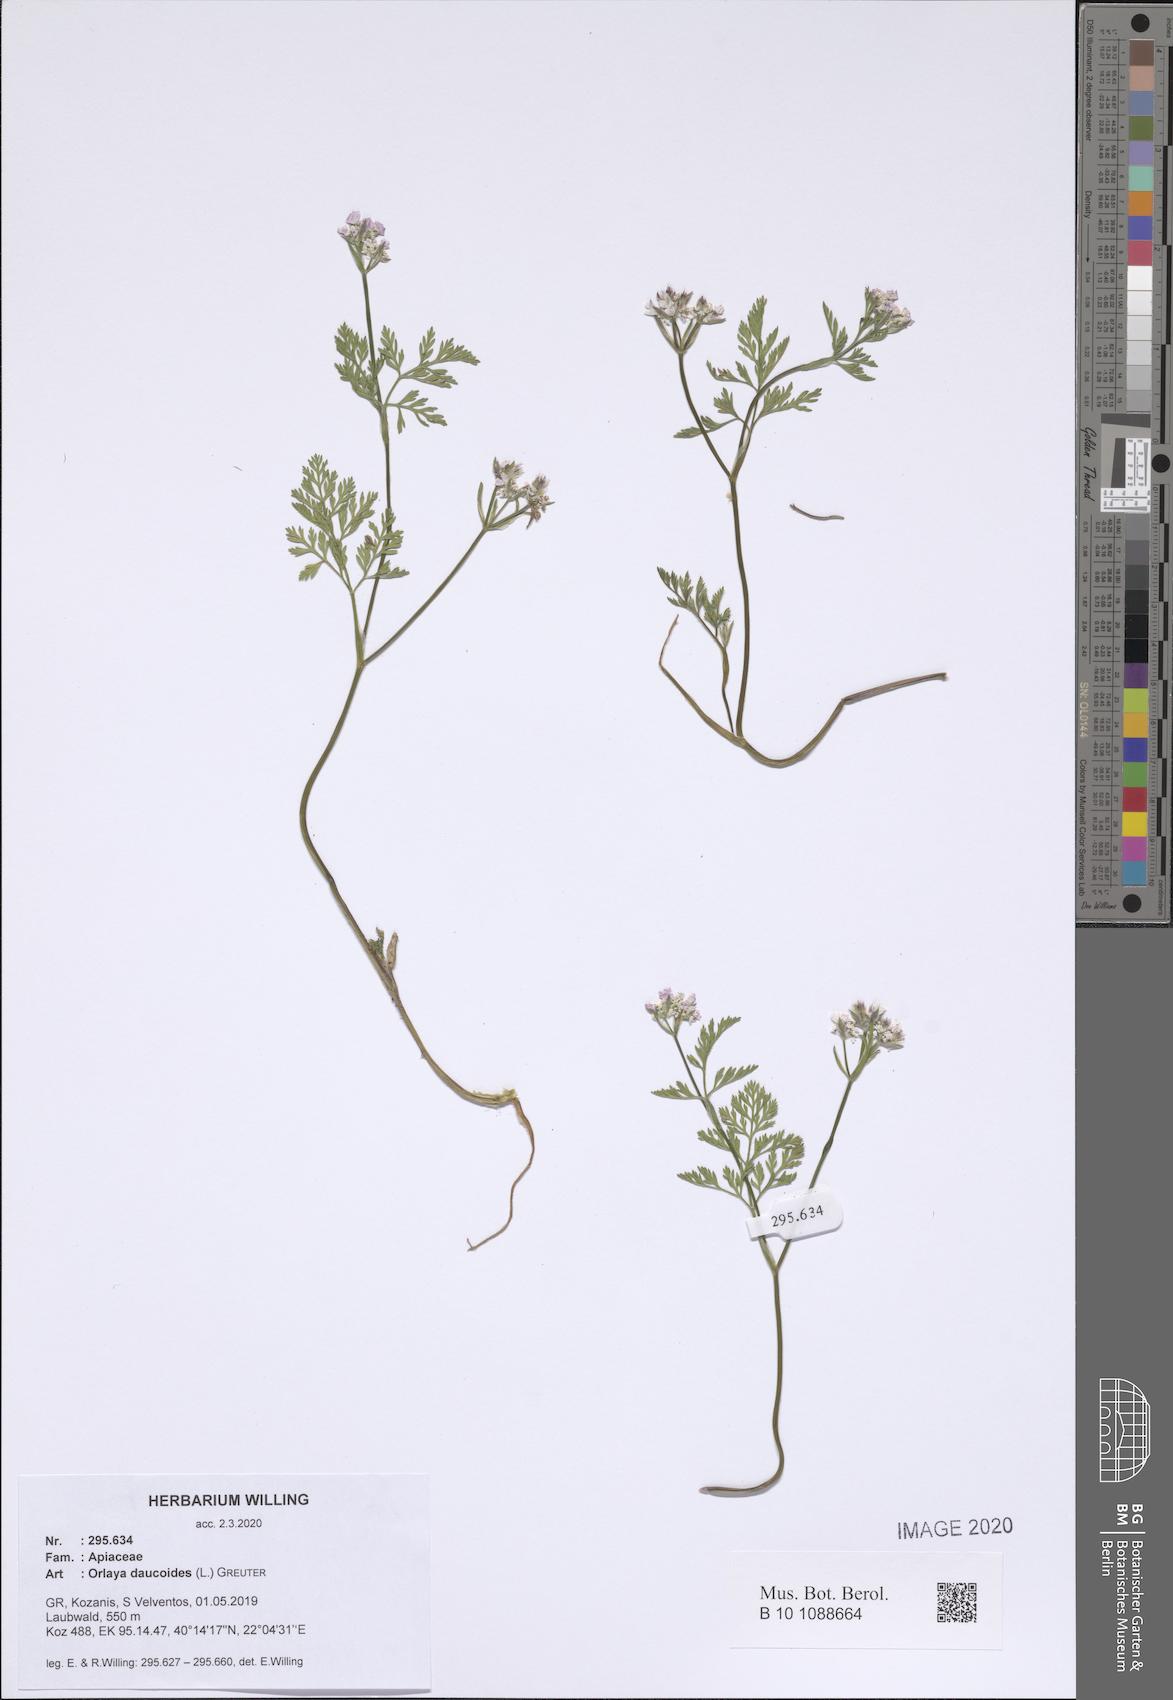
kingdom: Plantae
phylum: Tracheophyta
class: Magnoliopsida
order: Apiales
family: Apiaceae
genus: Orlaya
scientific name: Orlaya daucoides
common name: Flat-fruit orlaya
